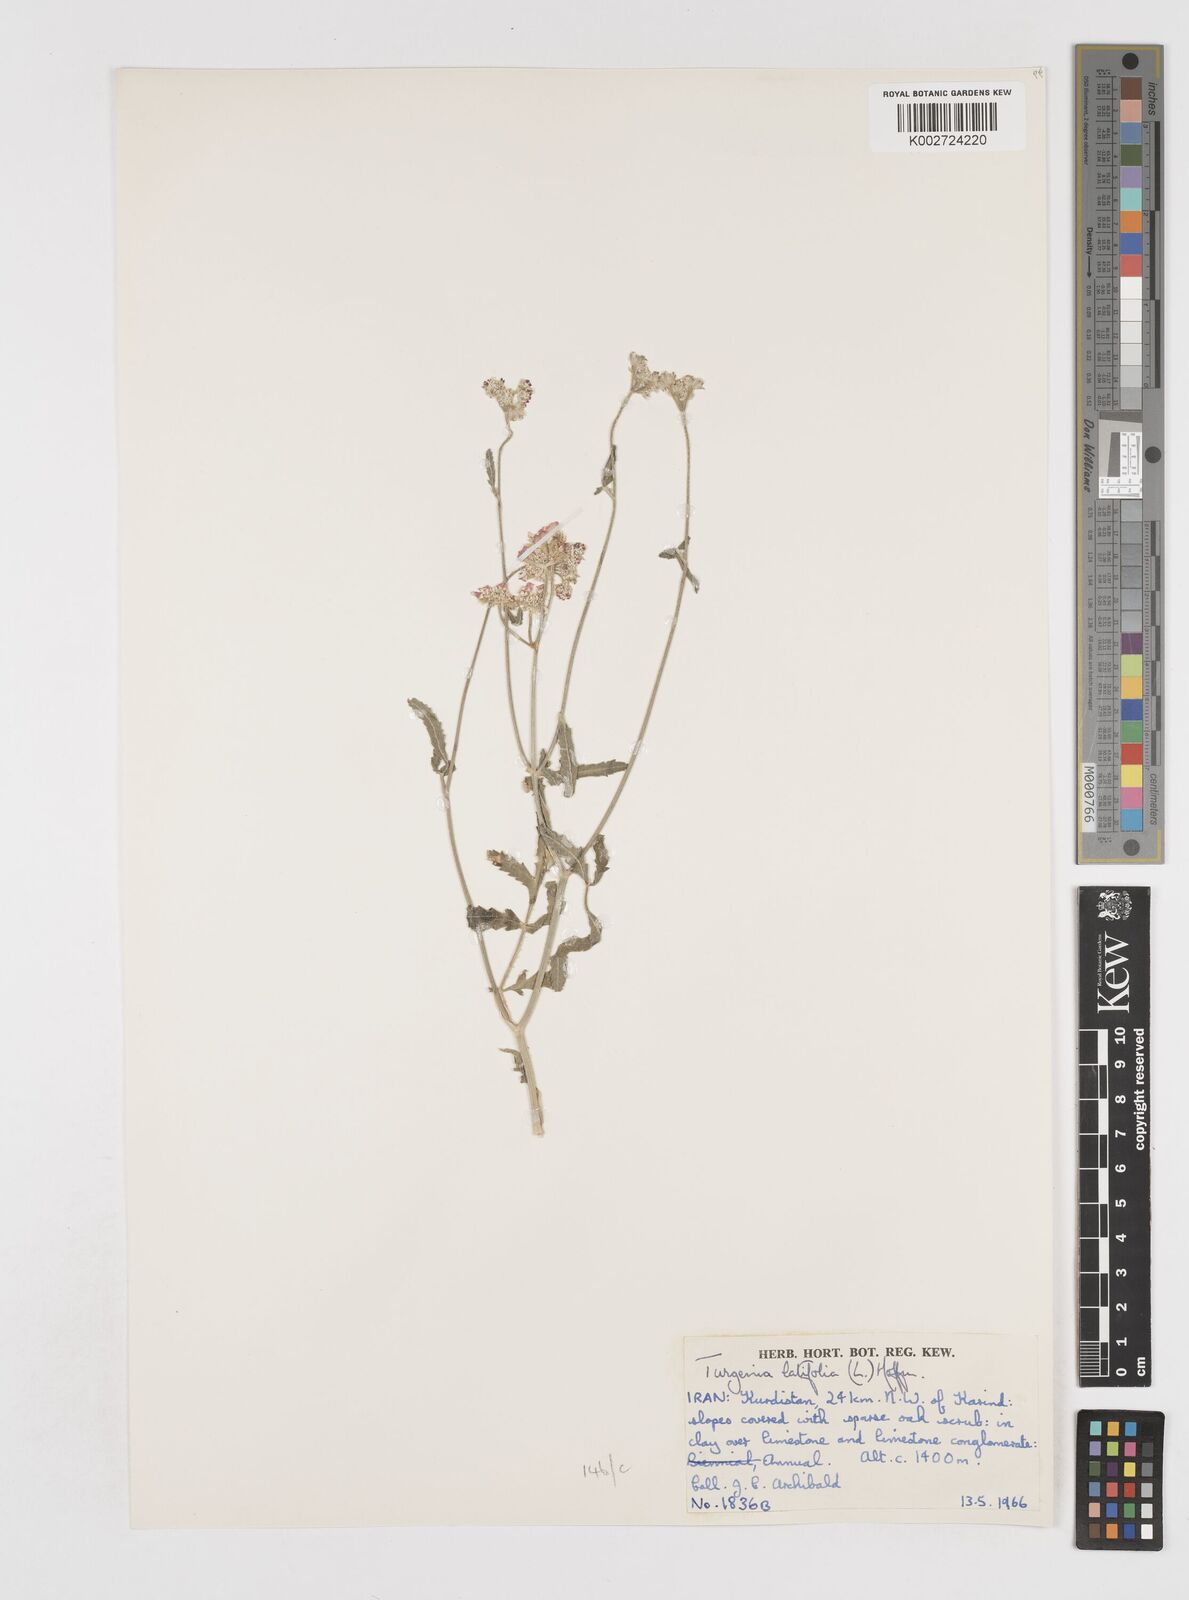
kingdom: Plantae
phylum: Tracheophyta
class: Magnoliopsida
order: Apiales
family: Apiaceae
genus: Turgenia
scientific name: Turgenia latifolia
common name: Greater bur-parsley
